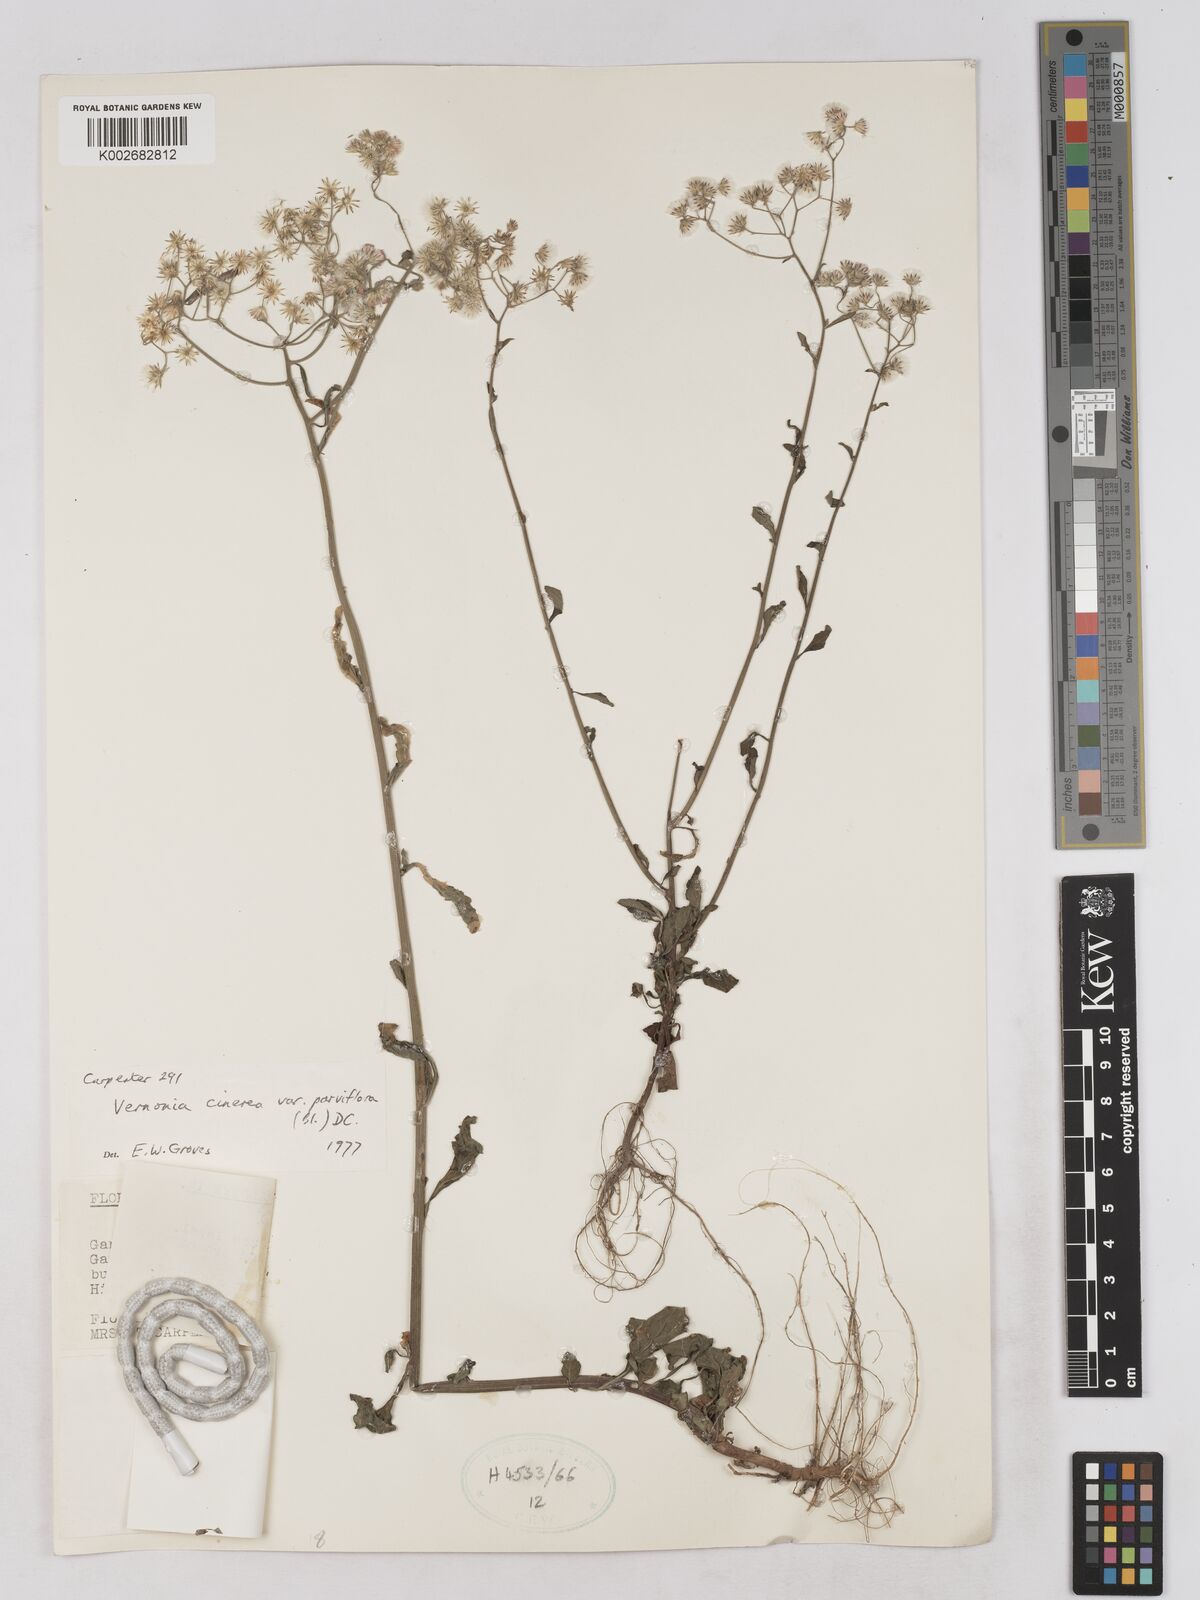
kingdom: Plantae
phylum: Tracheophyta
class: Magnoliopsida
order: Asterales
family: Asteraceae
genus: Cyanthillium
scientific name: Cyanthillium cinereum
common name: Little ironweed
